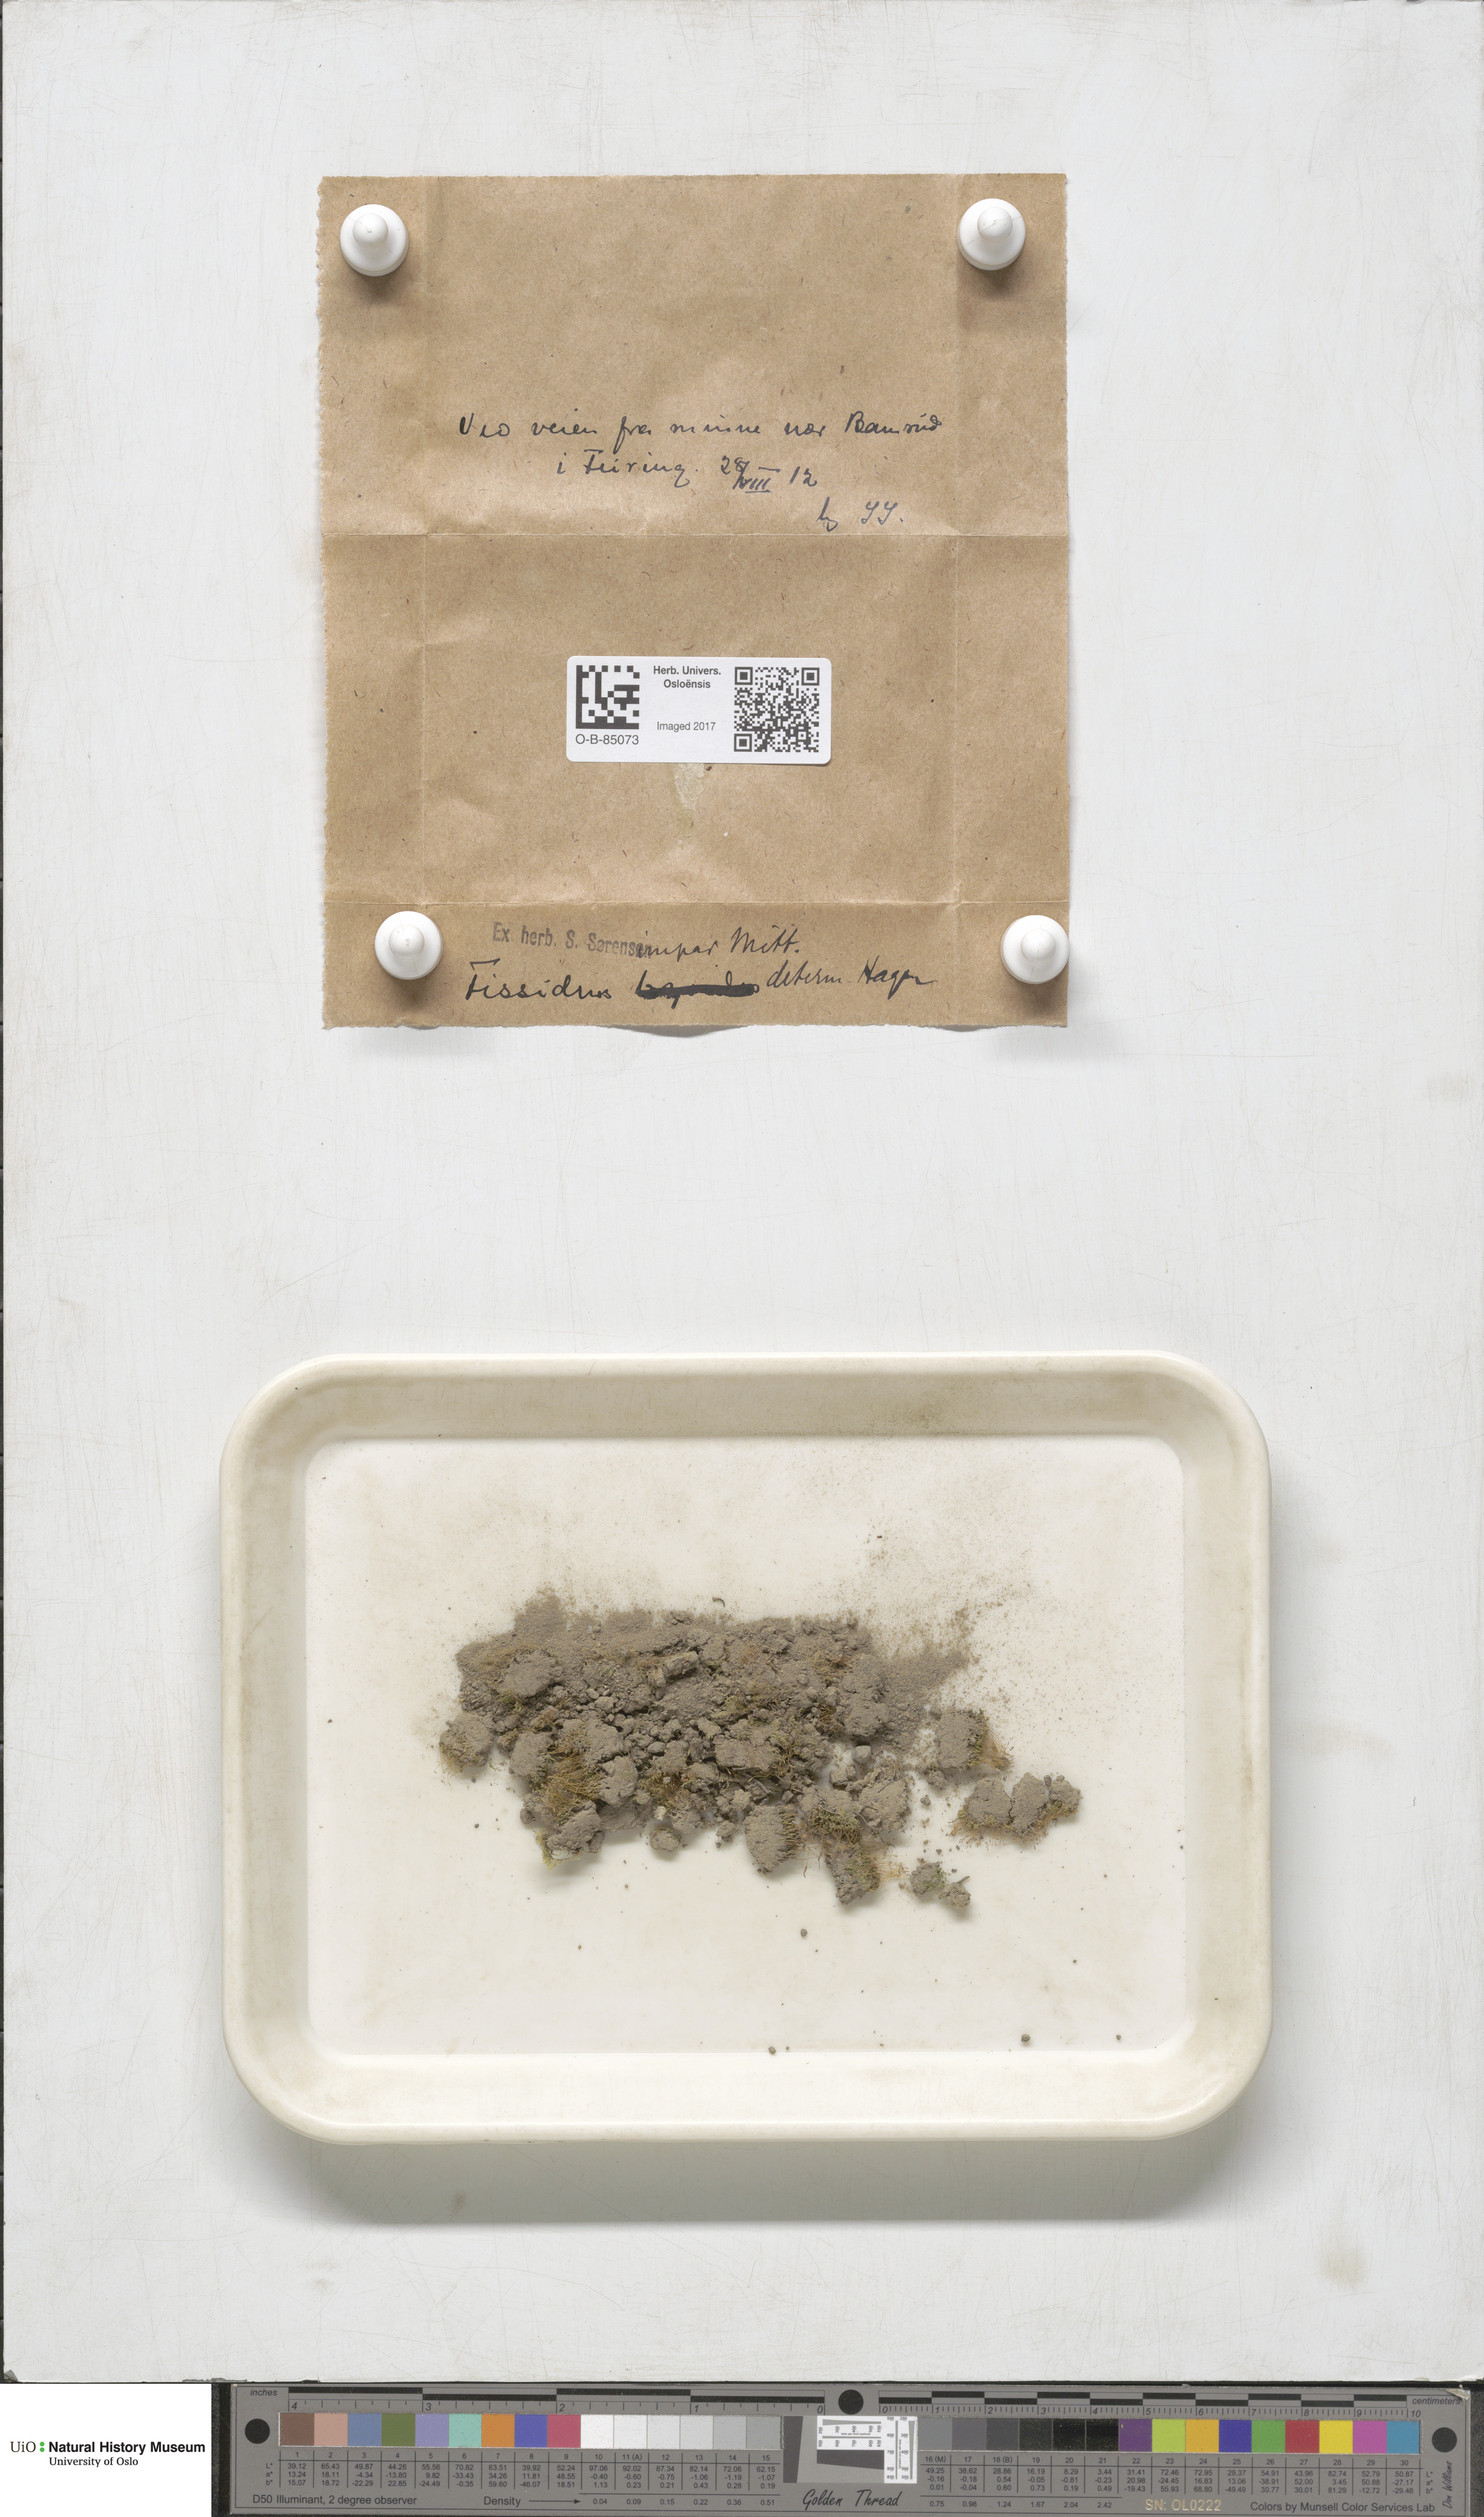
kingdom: Plantae
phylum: Bryophyta
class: Bryopsida
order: Dicranales
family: Fissidentaceae
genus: Fissidens
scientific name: Fissidens viridulus
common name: Green pocket-moss
